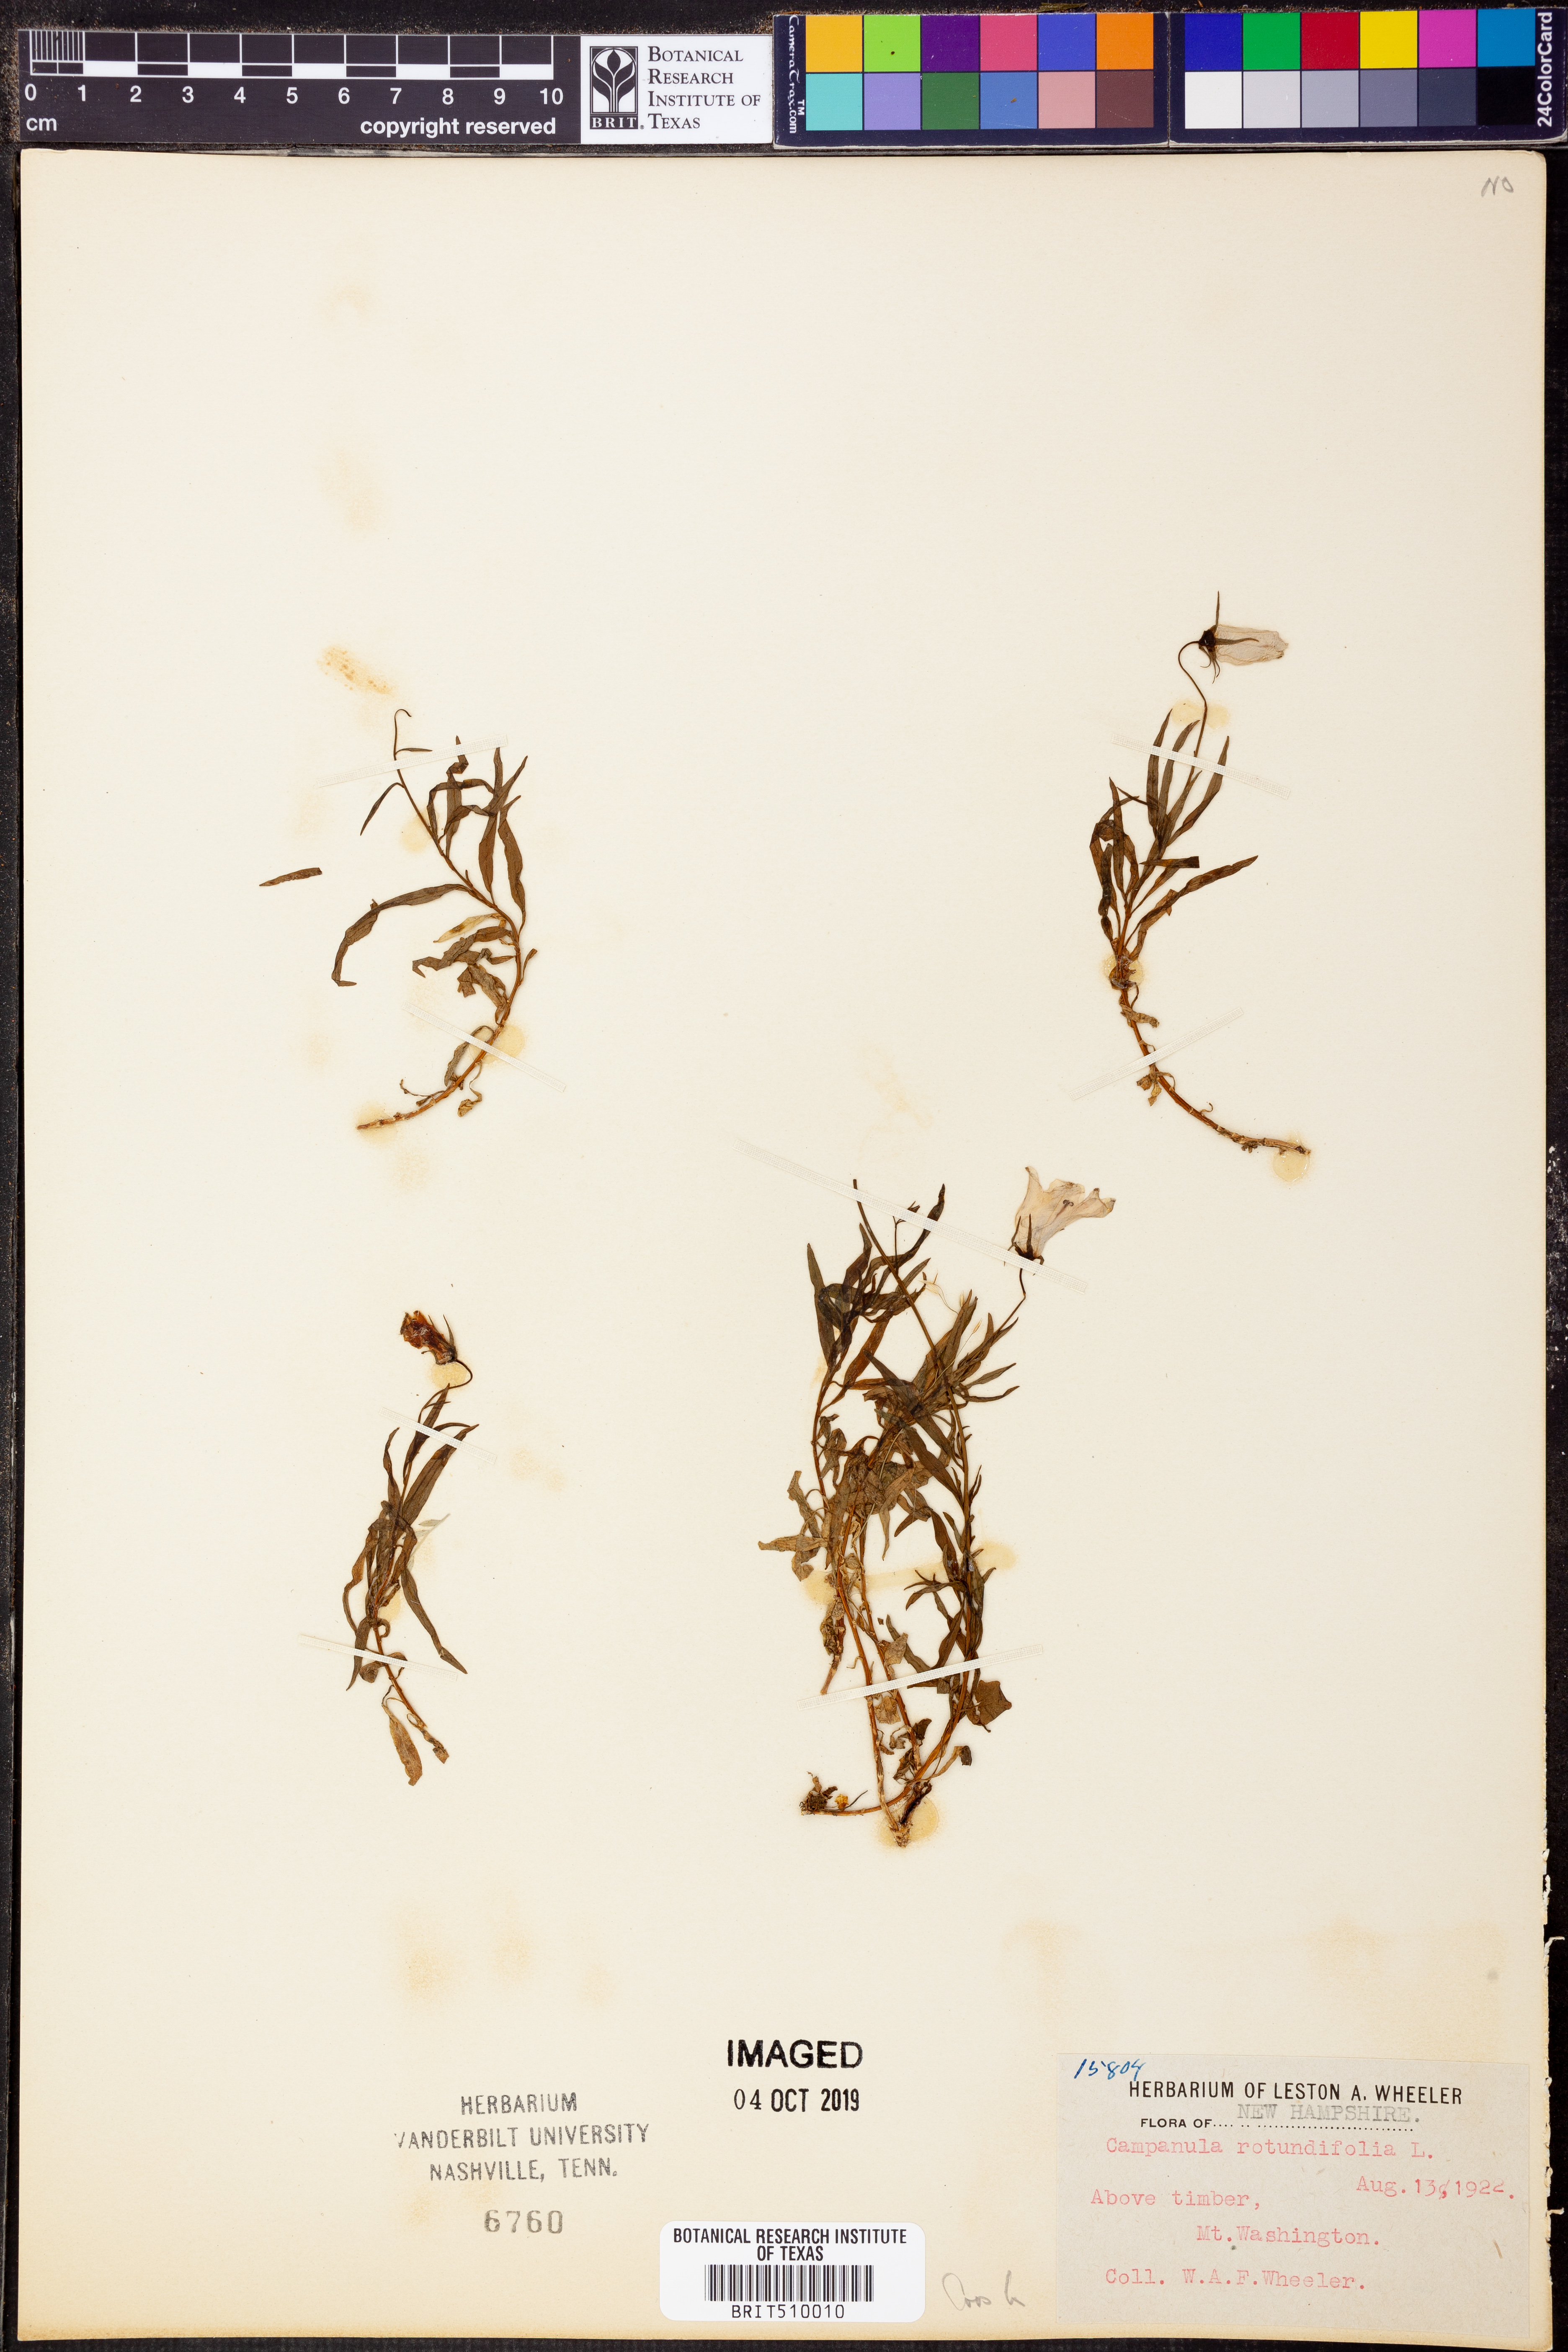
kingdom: Plantae
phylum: Tracheophyta
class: Magnoliopsida
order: Asterales
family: Campanulaceae
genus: Campanula
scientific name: Campanula rotundifolia
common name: Harebell
